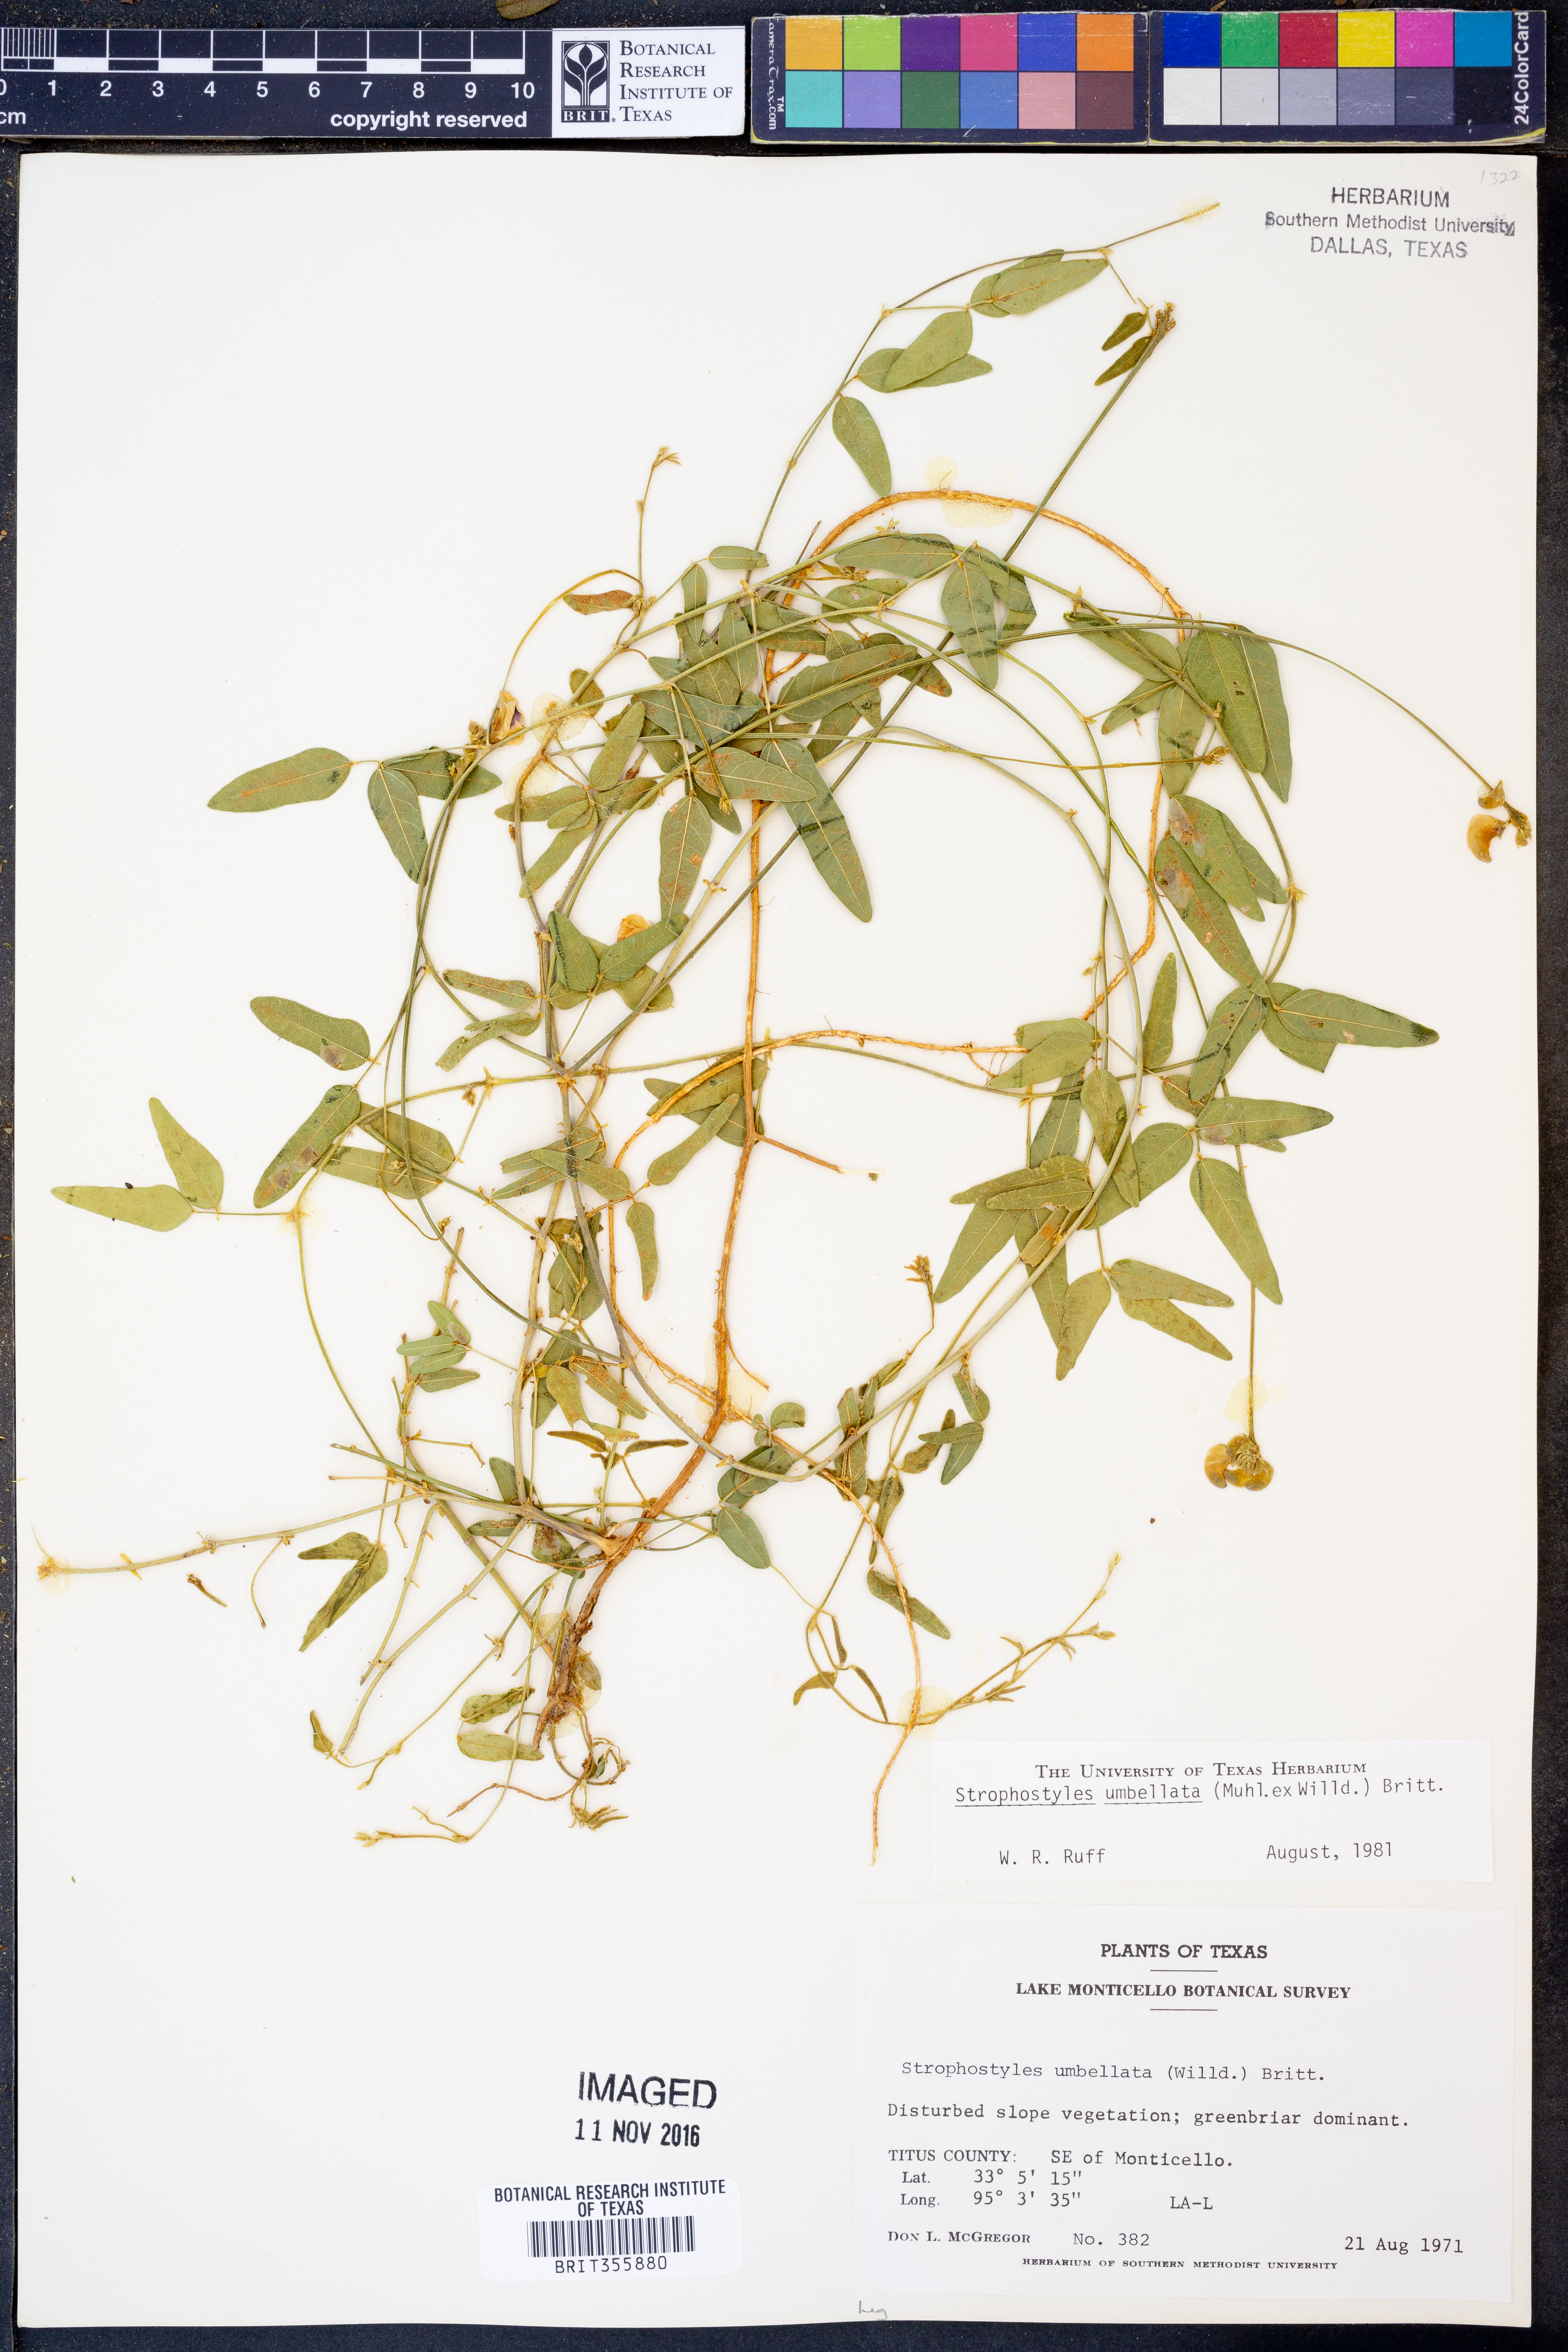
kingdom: Plantae
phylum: Tracheophyta
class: Magnoliopsida
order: Fabales
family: Fabaceae
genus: Strophostyles
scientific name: Strophostyles umbellata
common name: Perennial wild bean
